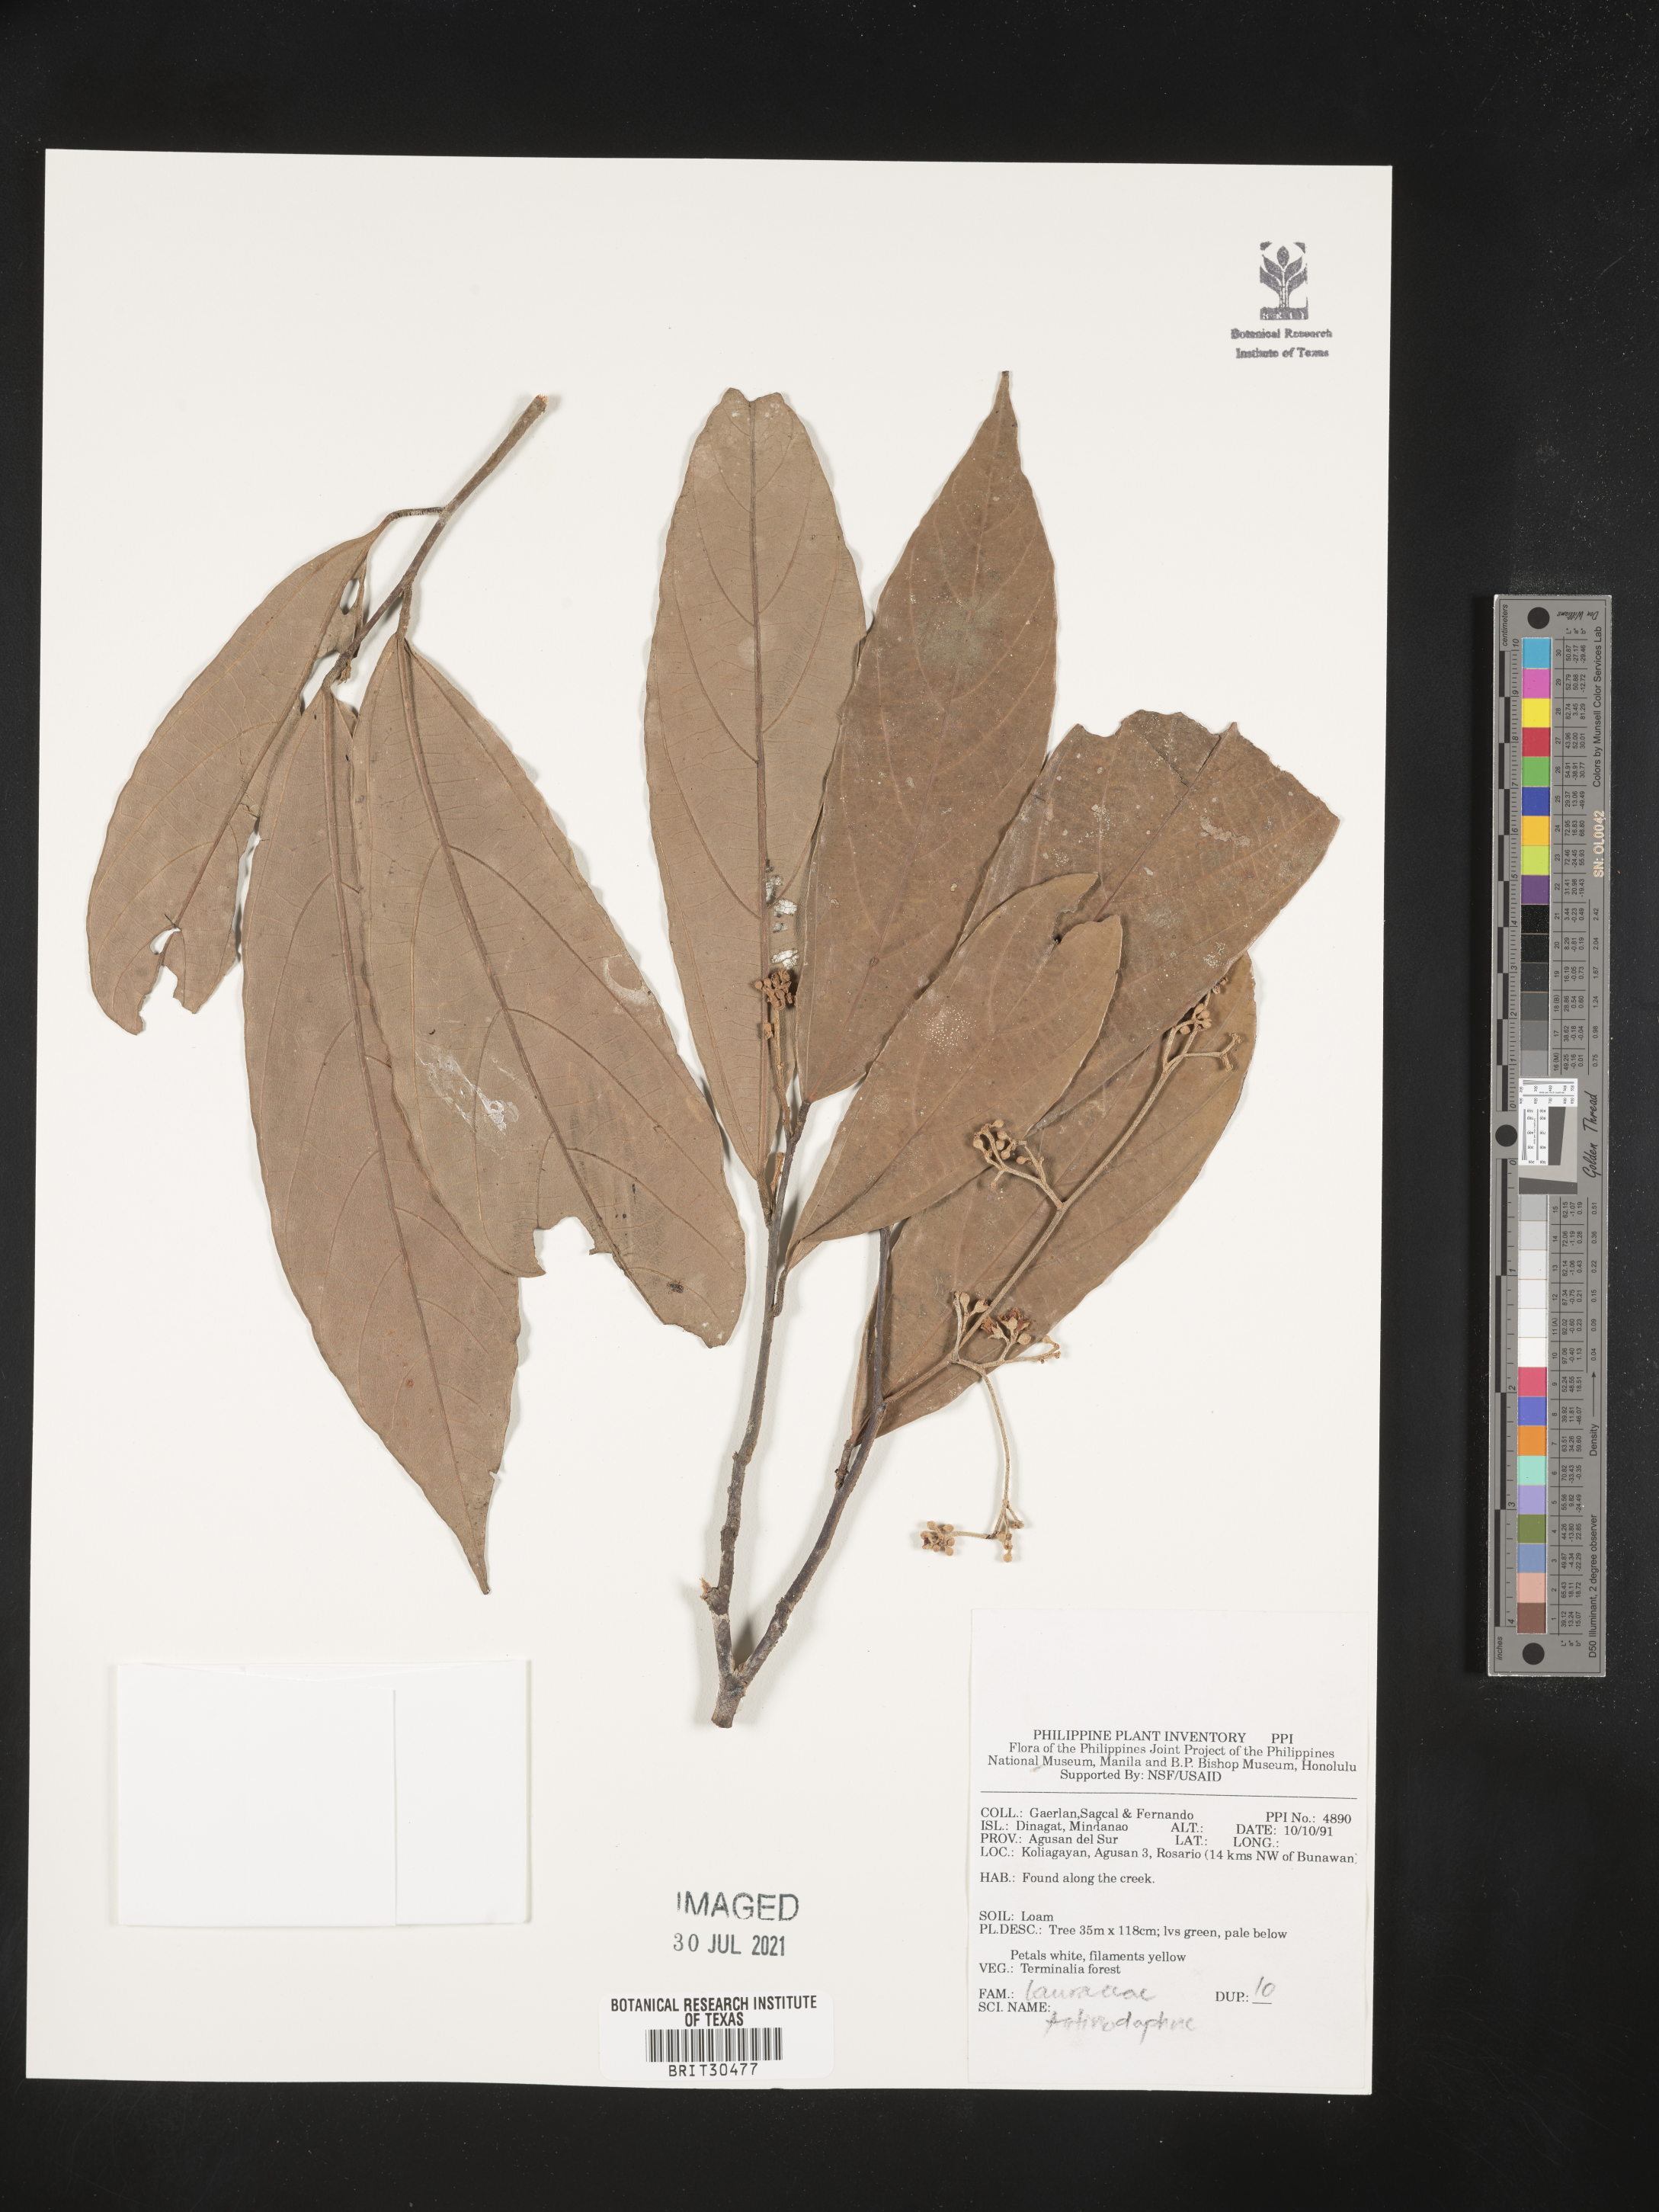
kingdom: Plantae
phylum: Tracheophyta
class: Magnoliopsida
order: Laurales
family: Lauraceae
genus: Actinodaphne
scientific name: Actinodaphne
